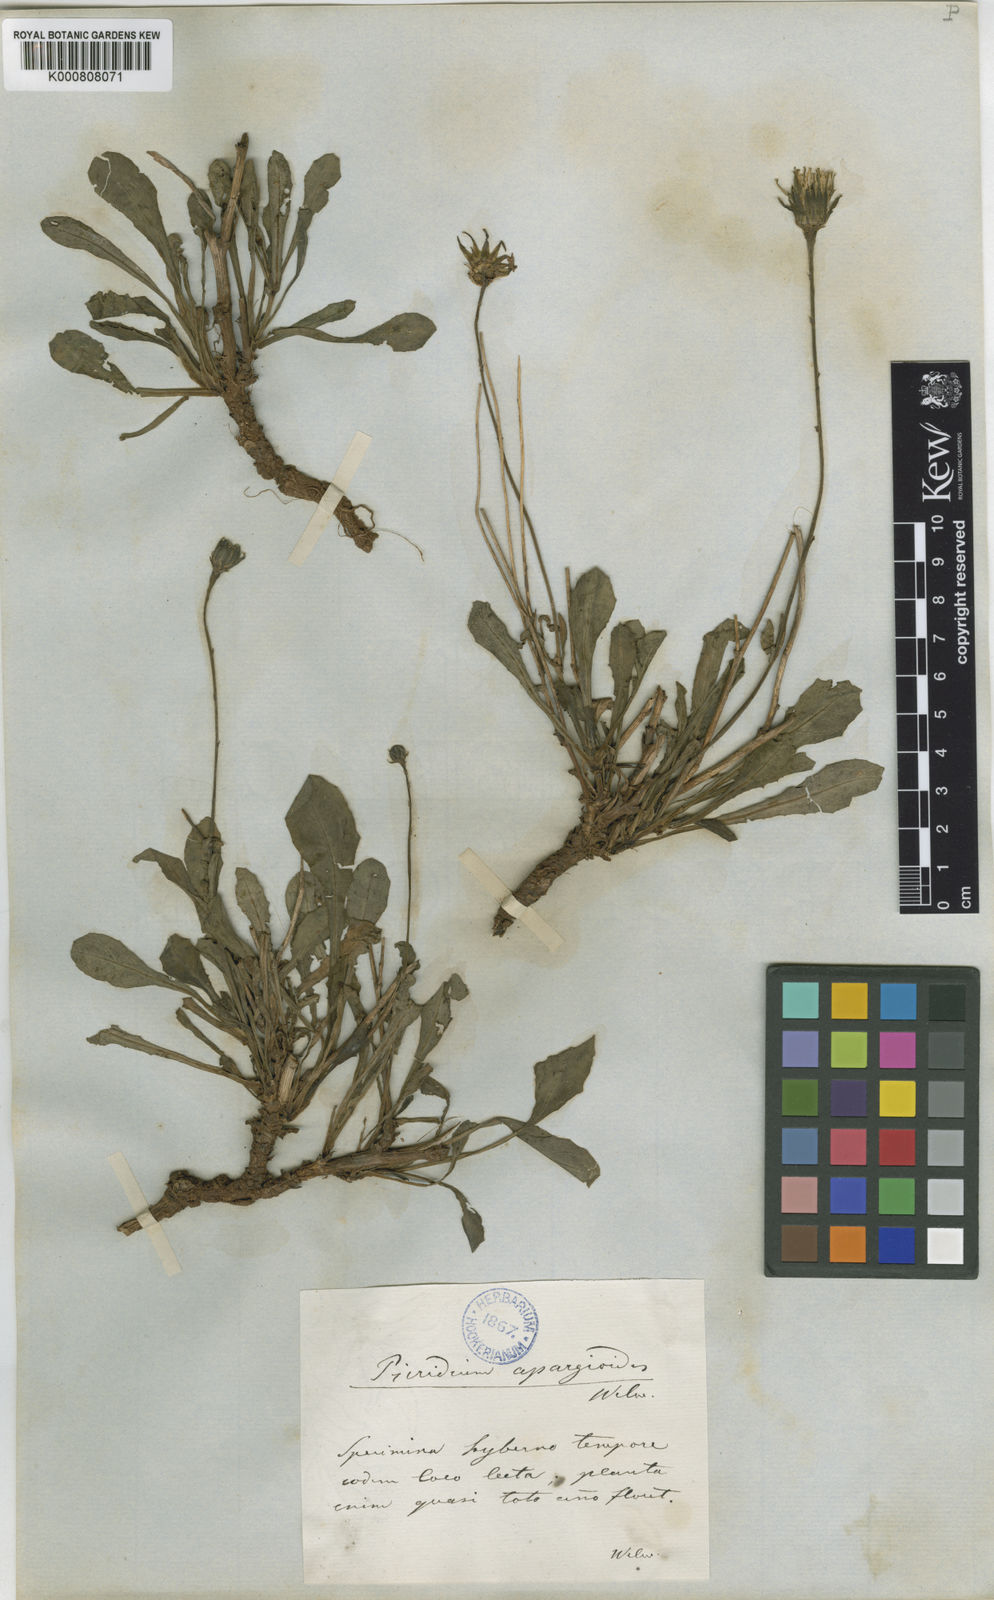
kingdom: Plantae
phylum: Tracheophyta
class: Magnoliopsida
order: Asterales
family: Asteraceae
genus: Reichardia
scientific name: Reichardia intermedia
